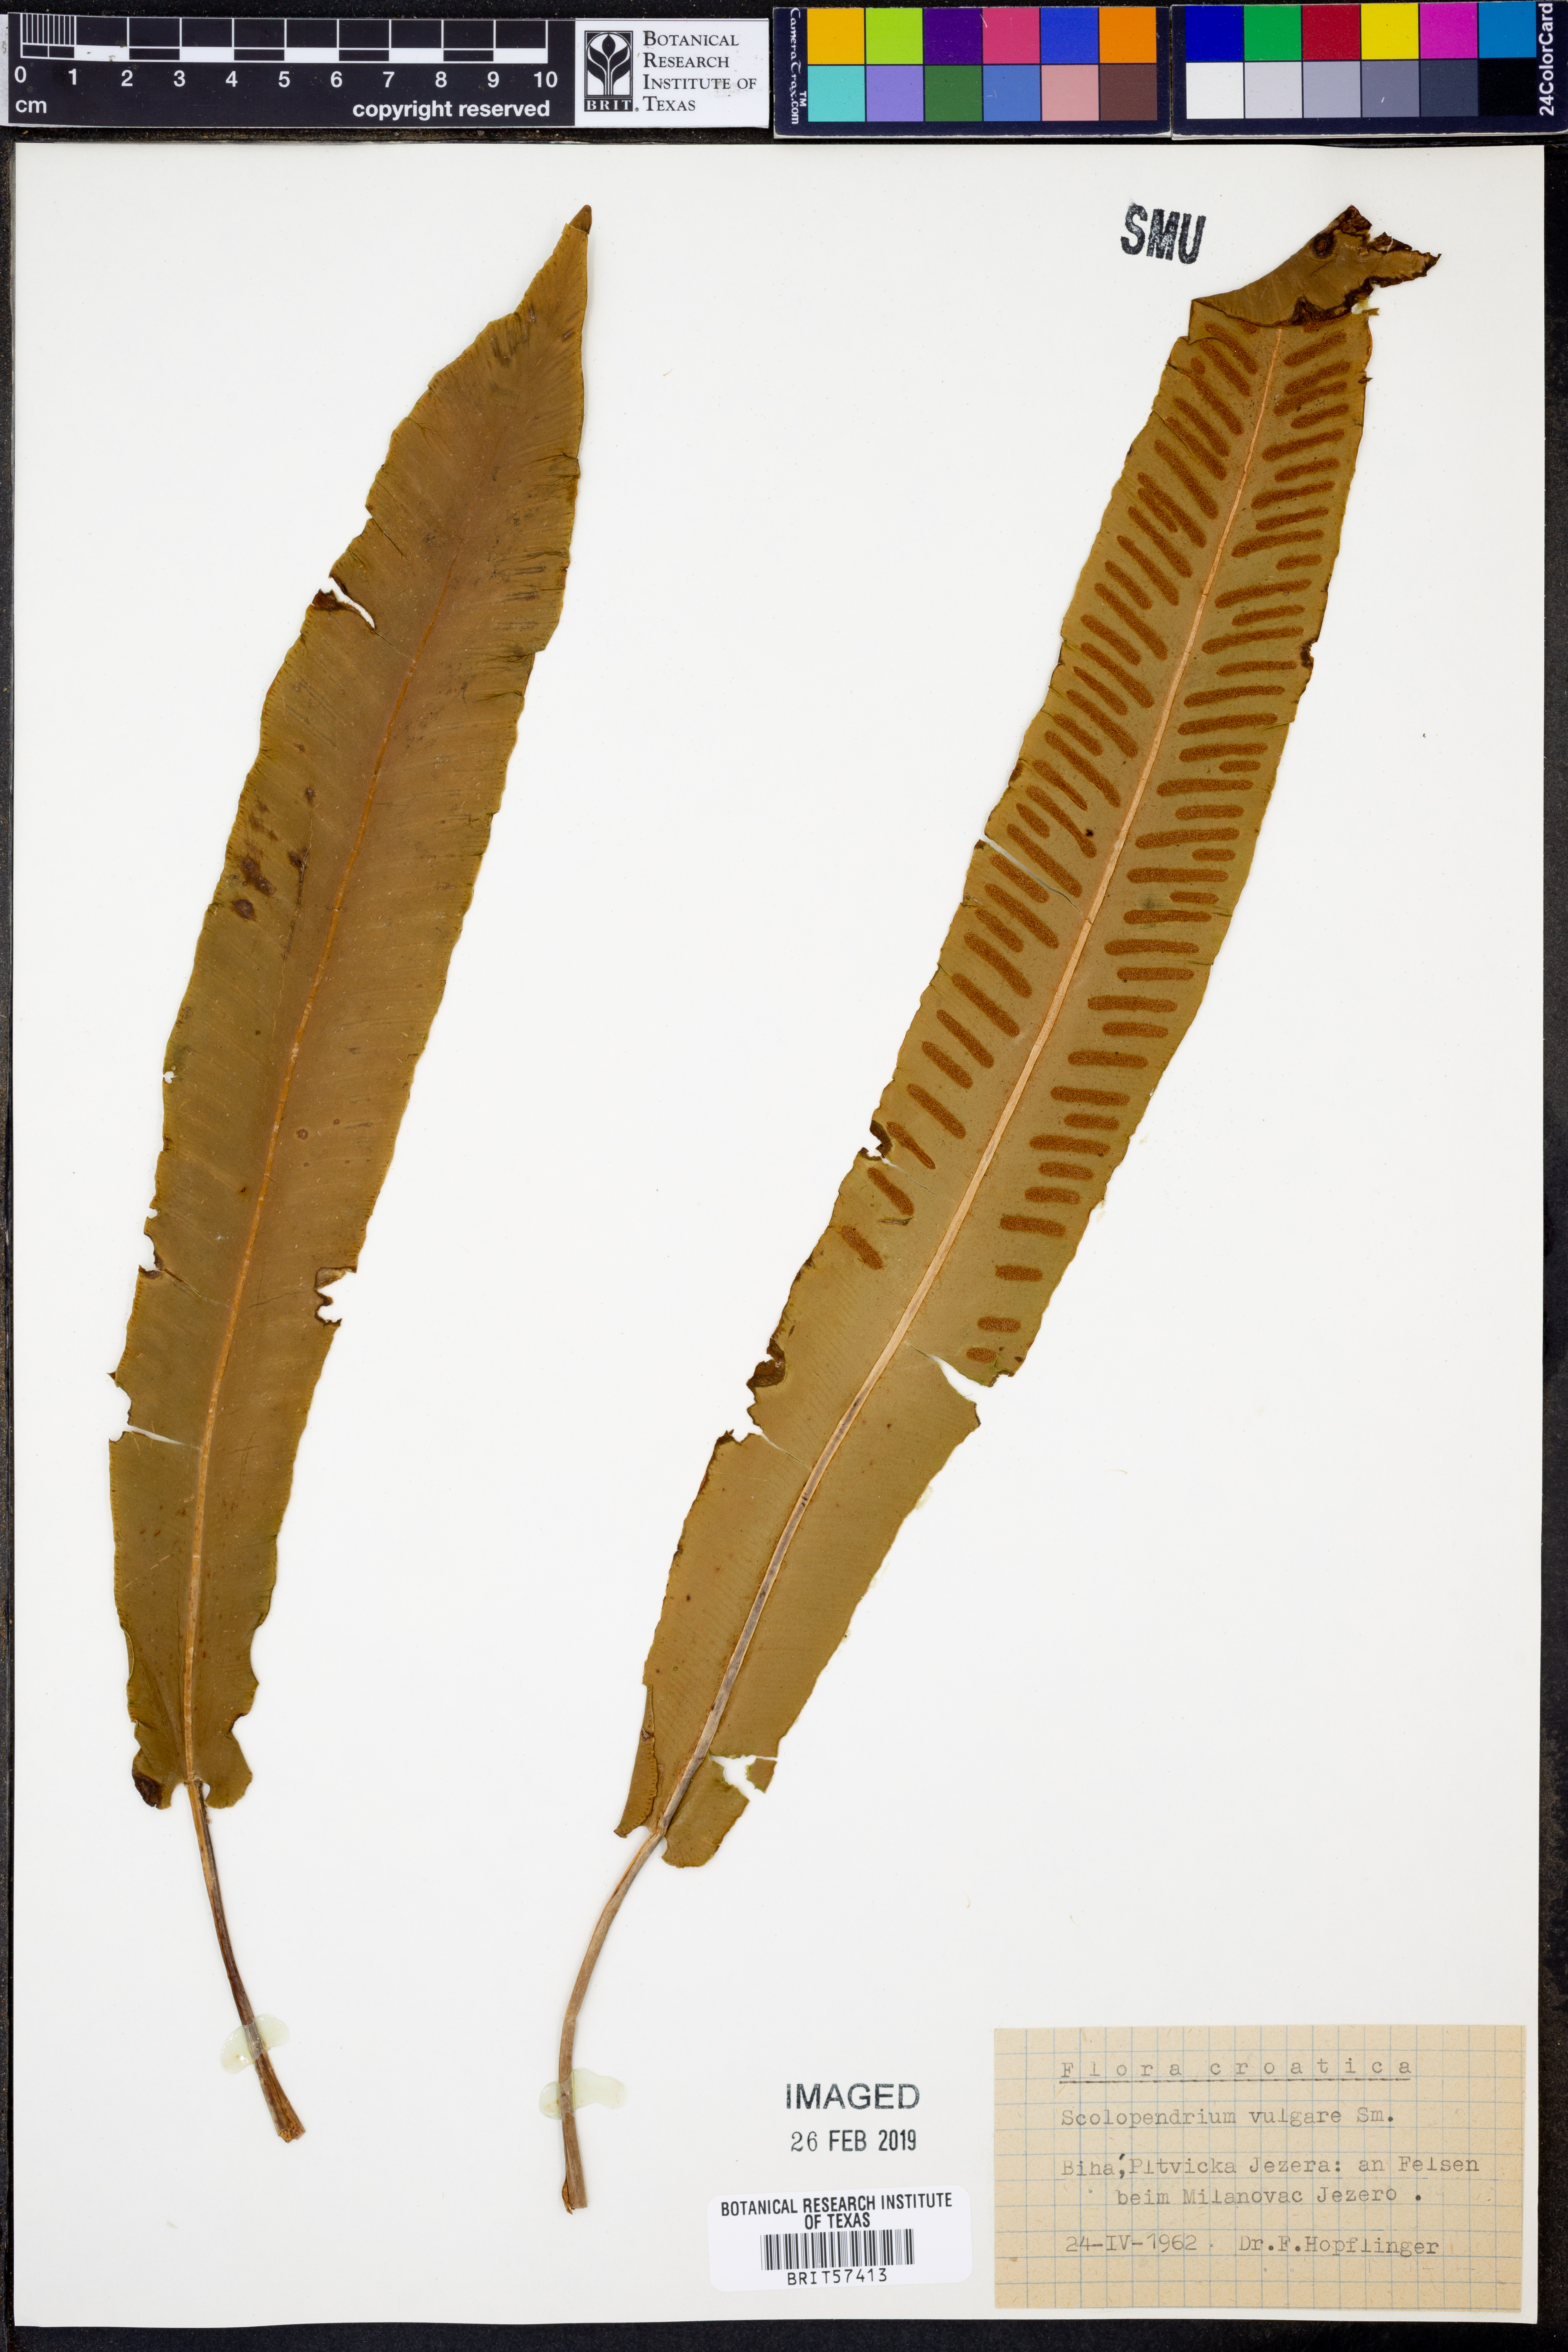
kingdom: Plantae
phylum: Tracheophyta
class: Polypodiopsida
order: Polypodiales
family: Aspleniaceae
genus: Asplenium
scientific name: Asplenium scolopendrium
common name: Hart's-tongue fern
